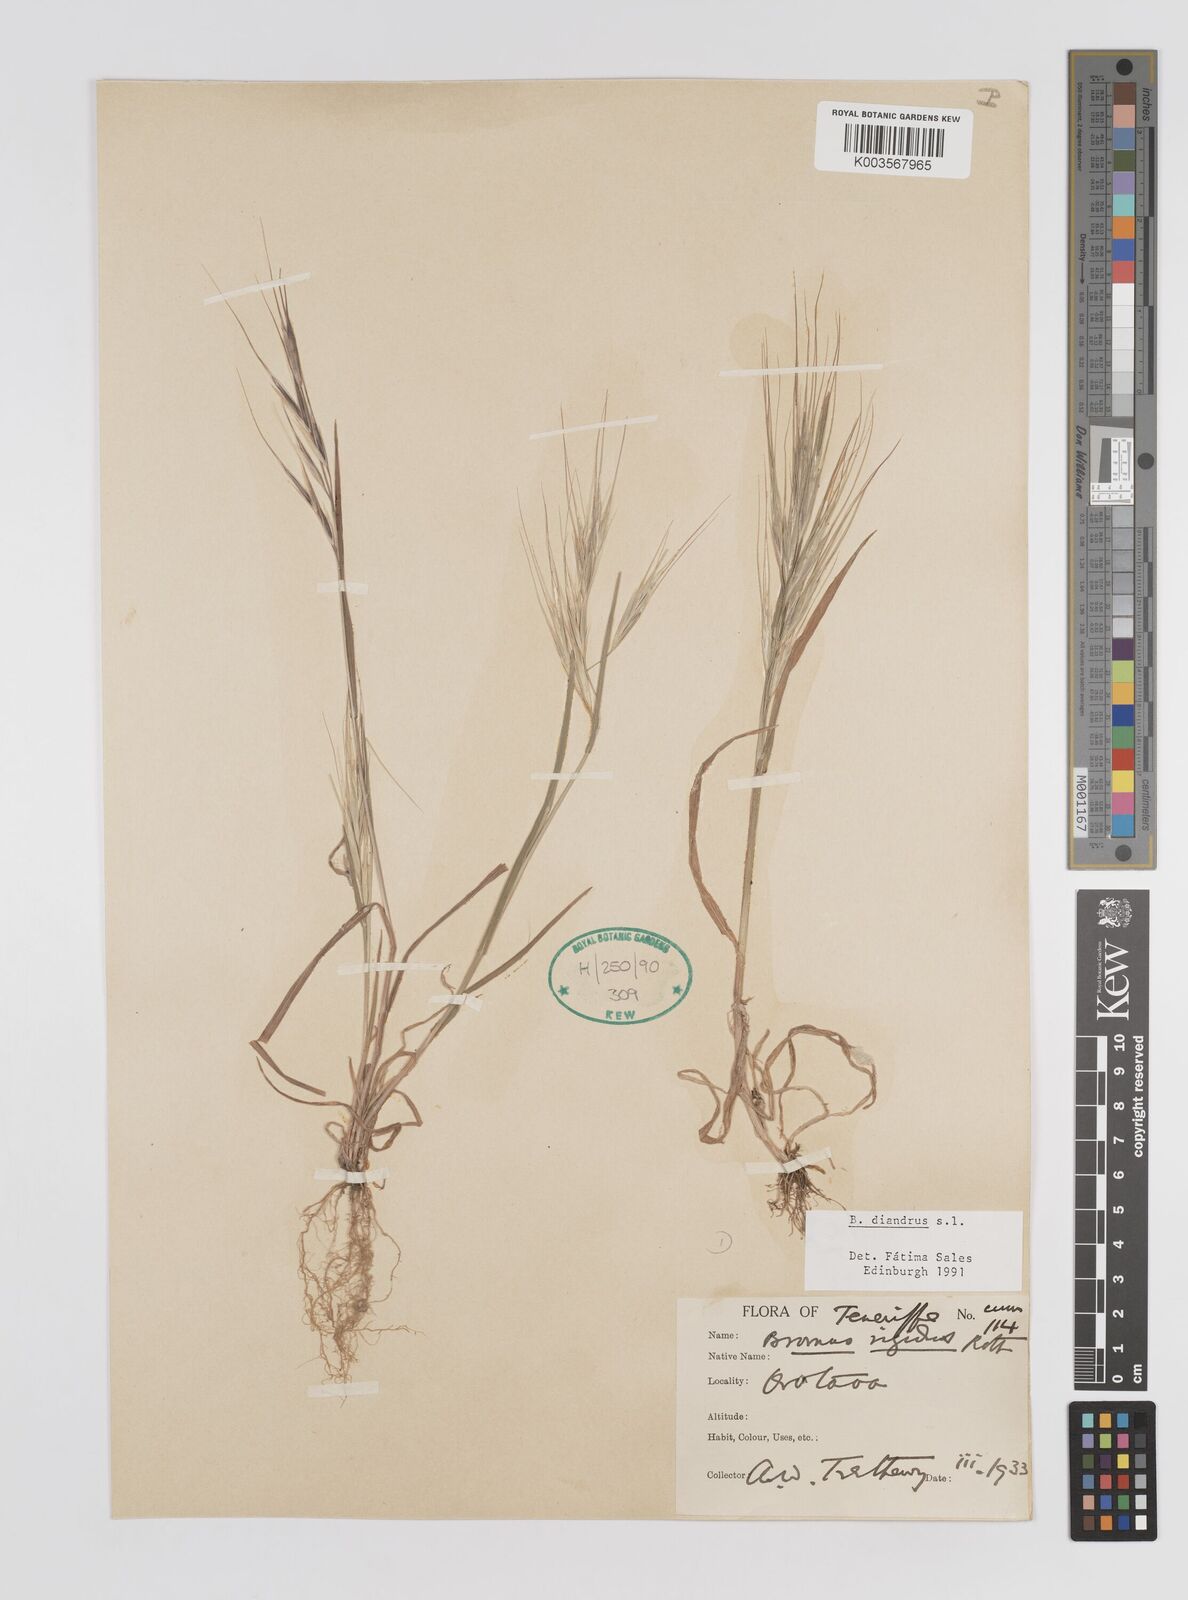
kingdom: Plantae
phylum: Tracheophyta
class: Liliopsida
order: Poales
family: Poaceae
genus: Bromus
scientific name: Bromus diandrus
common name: Ripgut brome
